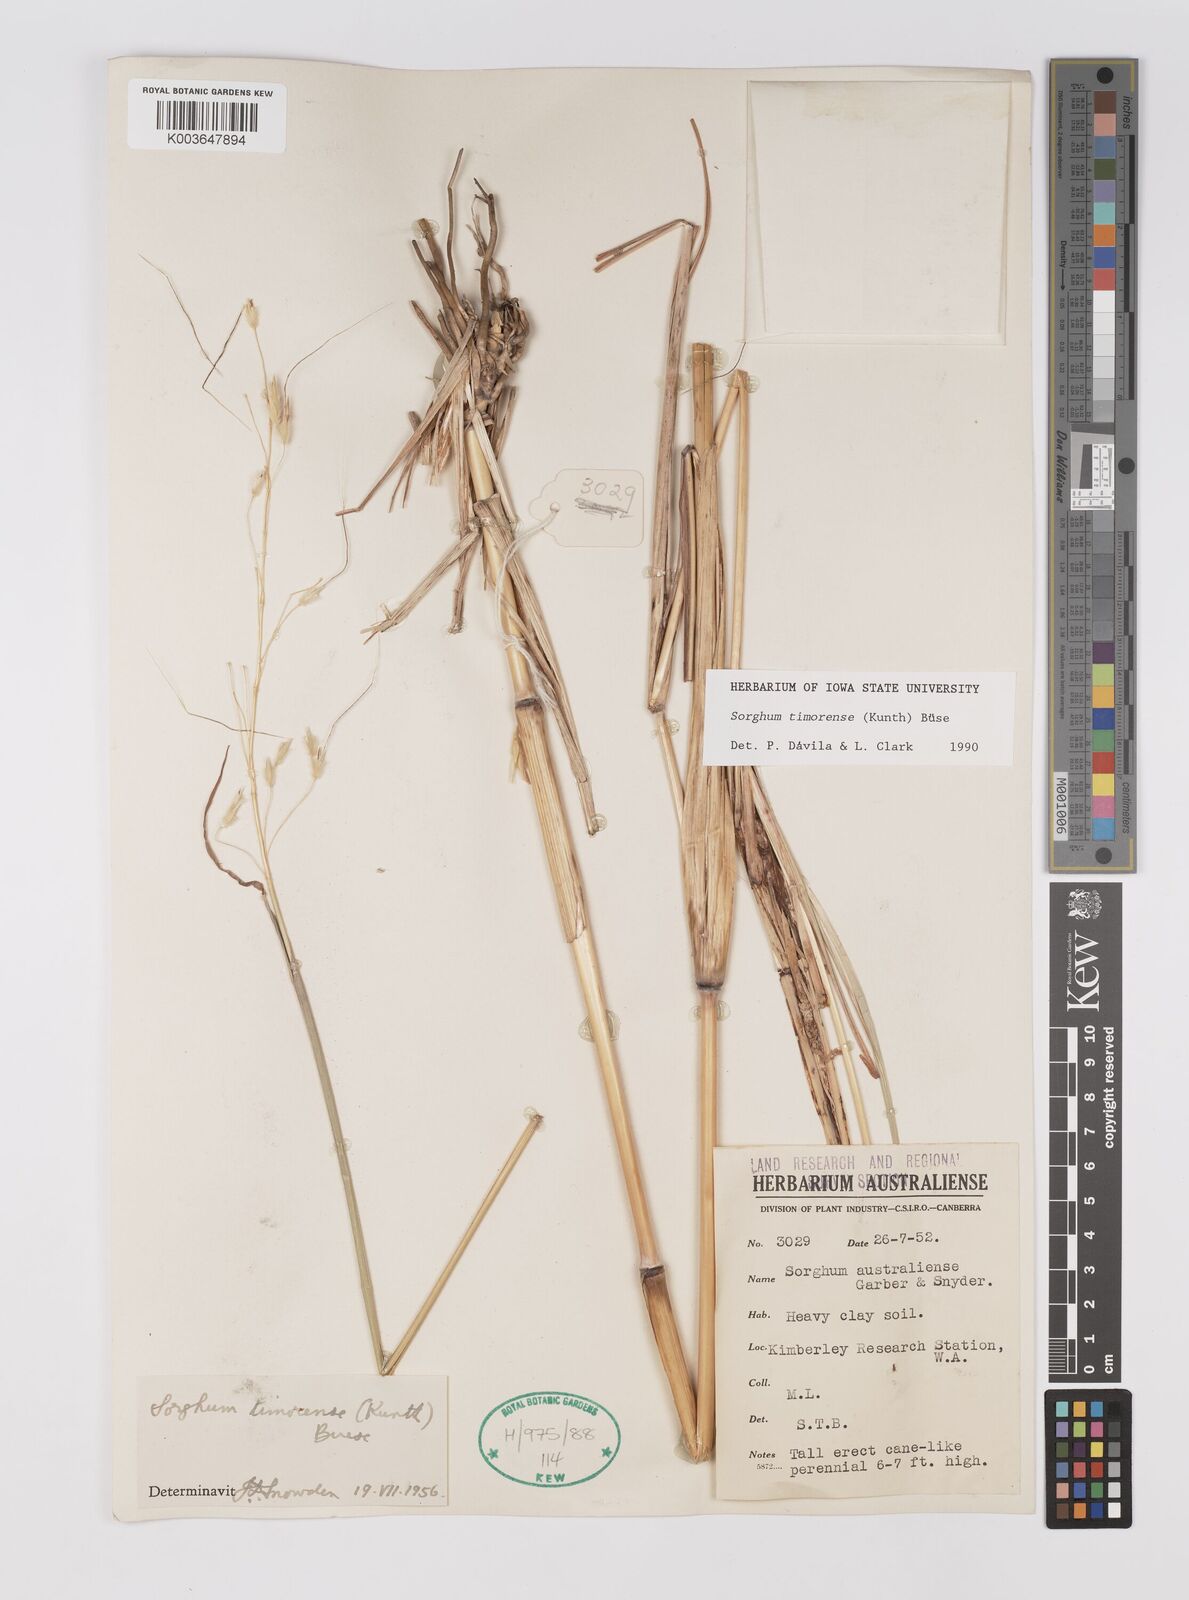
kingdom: Plantae
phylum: Tracheophyta
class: Liliopsida
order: Poales
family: Poaceae
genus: Sarga
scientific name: Sarga timorensis
